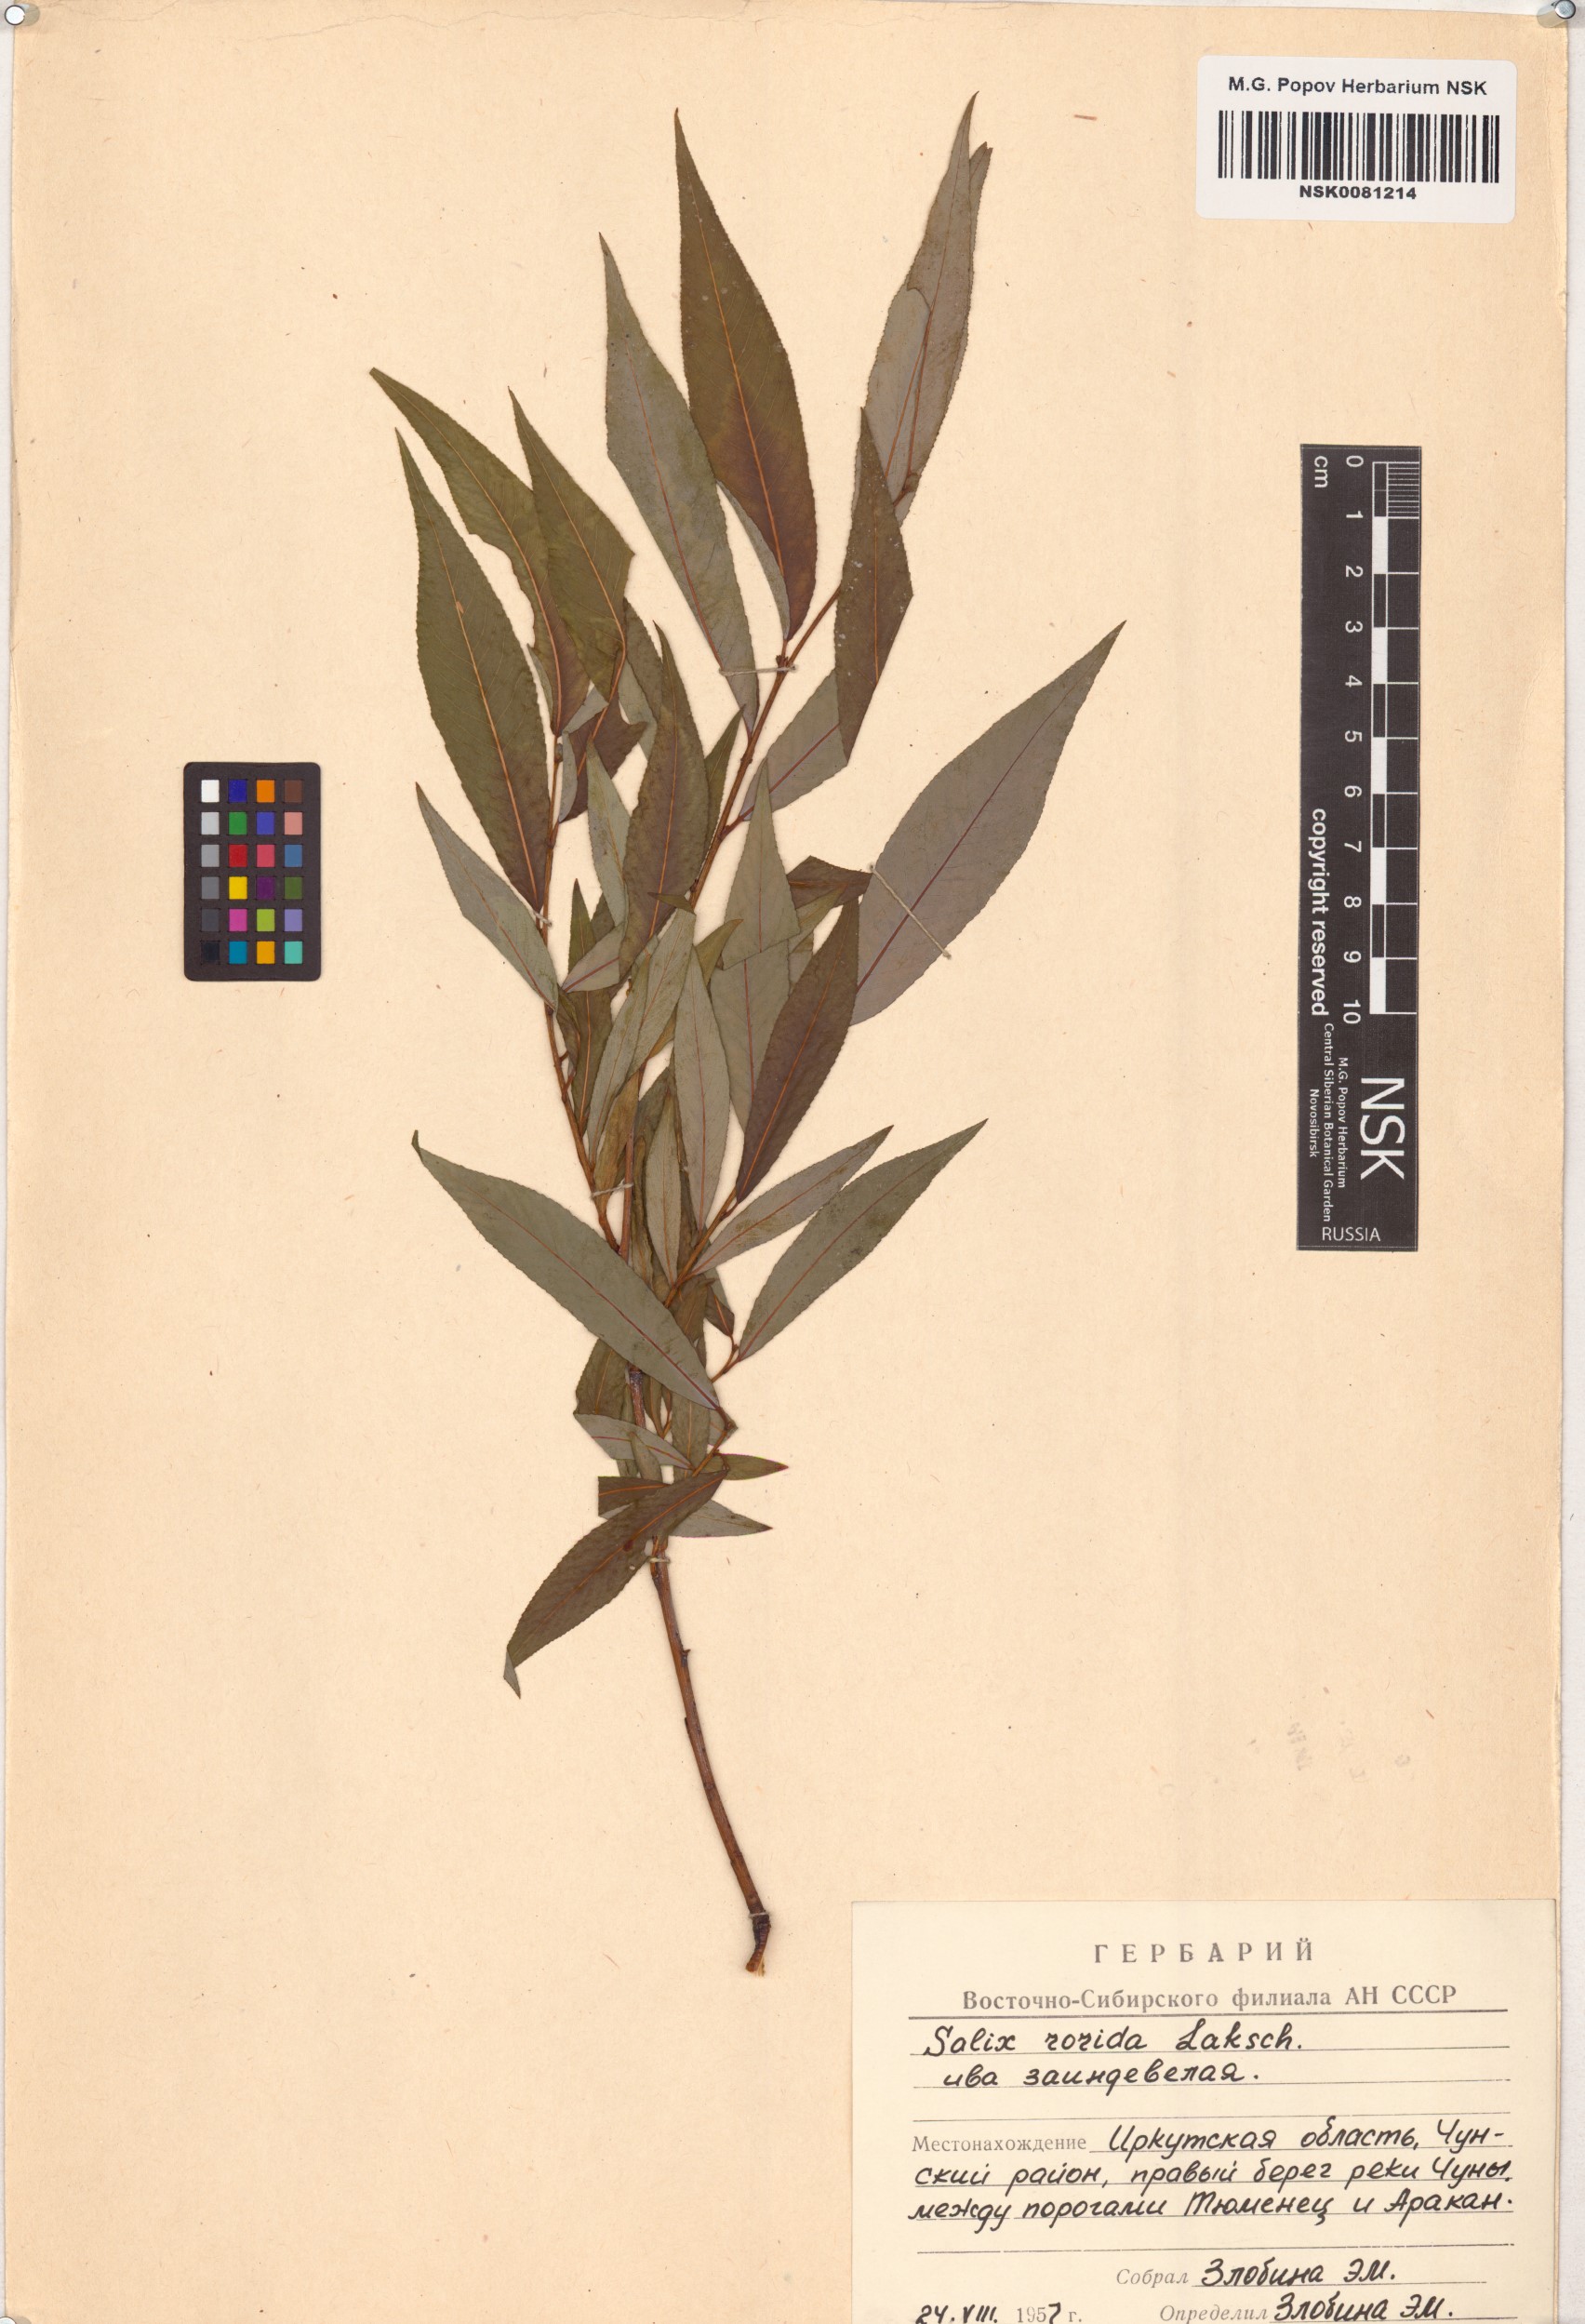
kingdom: Plantae
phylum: Tracheophyta
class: Magnoliopsida
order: Malpighiales
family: Salicaceae
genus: Salix
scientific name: Salix rorida
